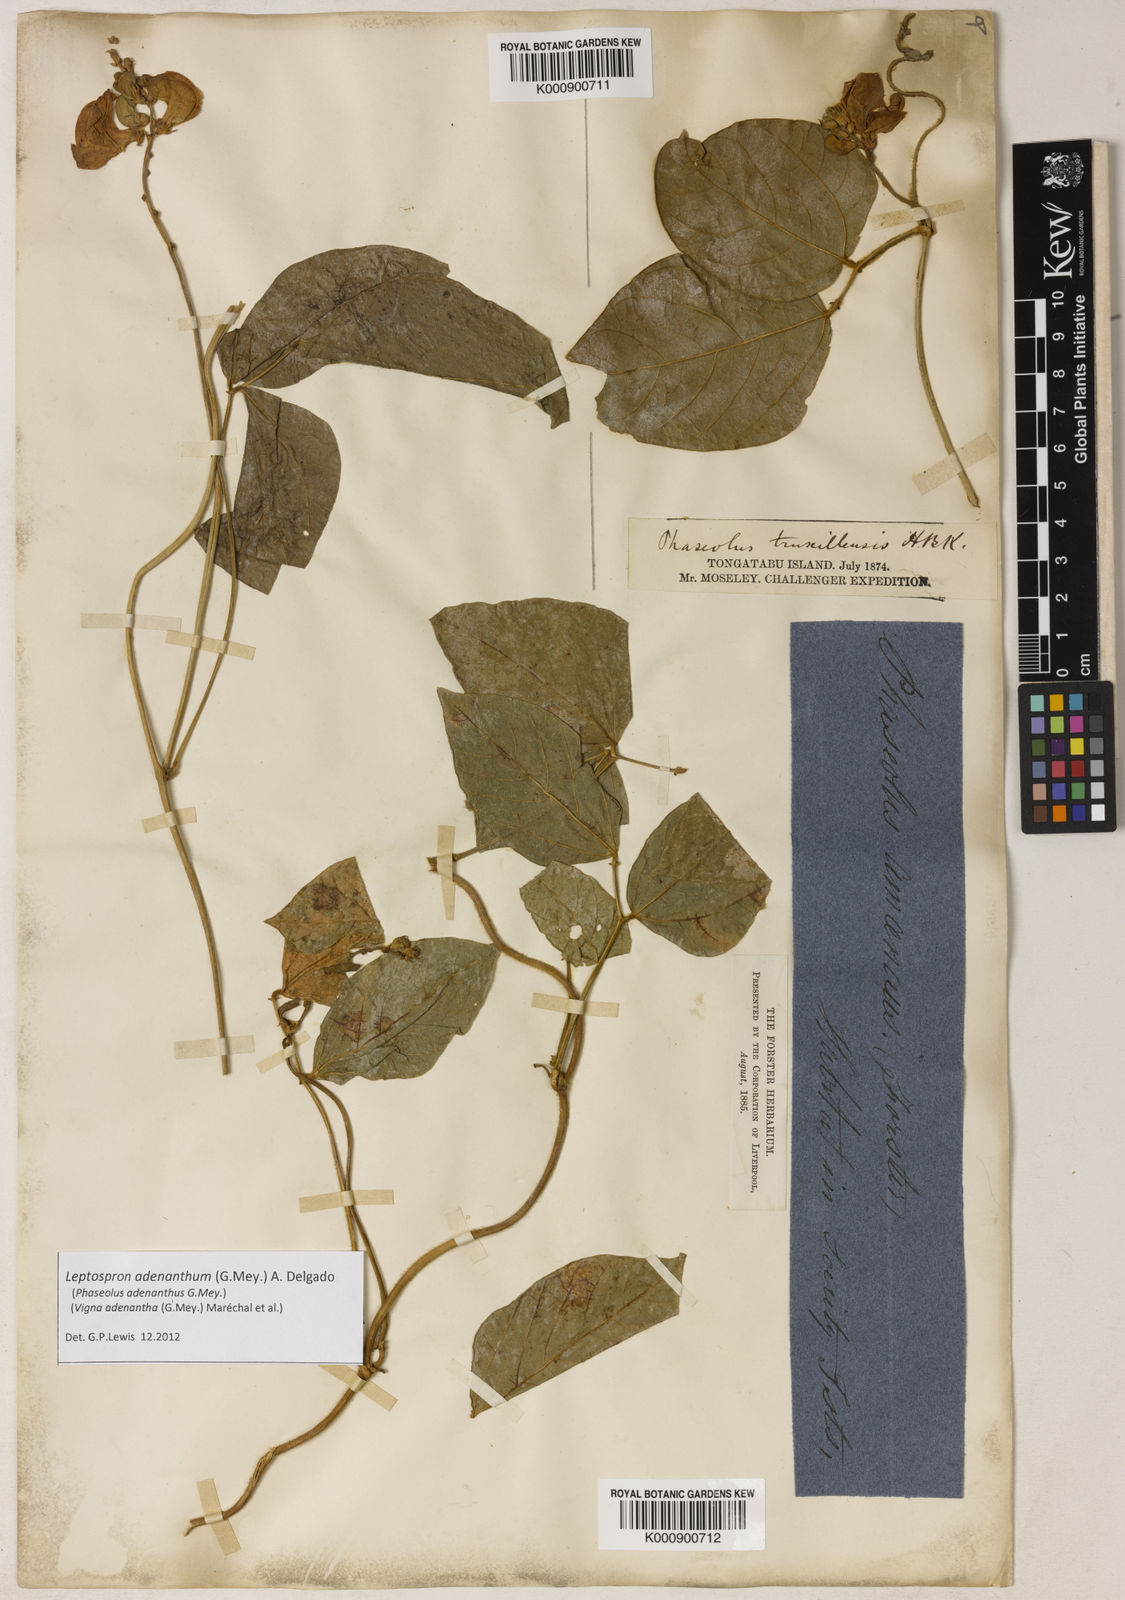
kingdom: Plantae
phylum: Tracheophyta
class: Magnoliopsida
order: Fabales
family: Fabaceae
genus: Leptospron
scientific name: Leptospron adenanthum
